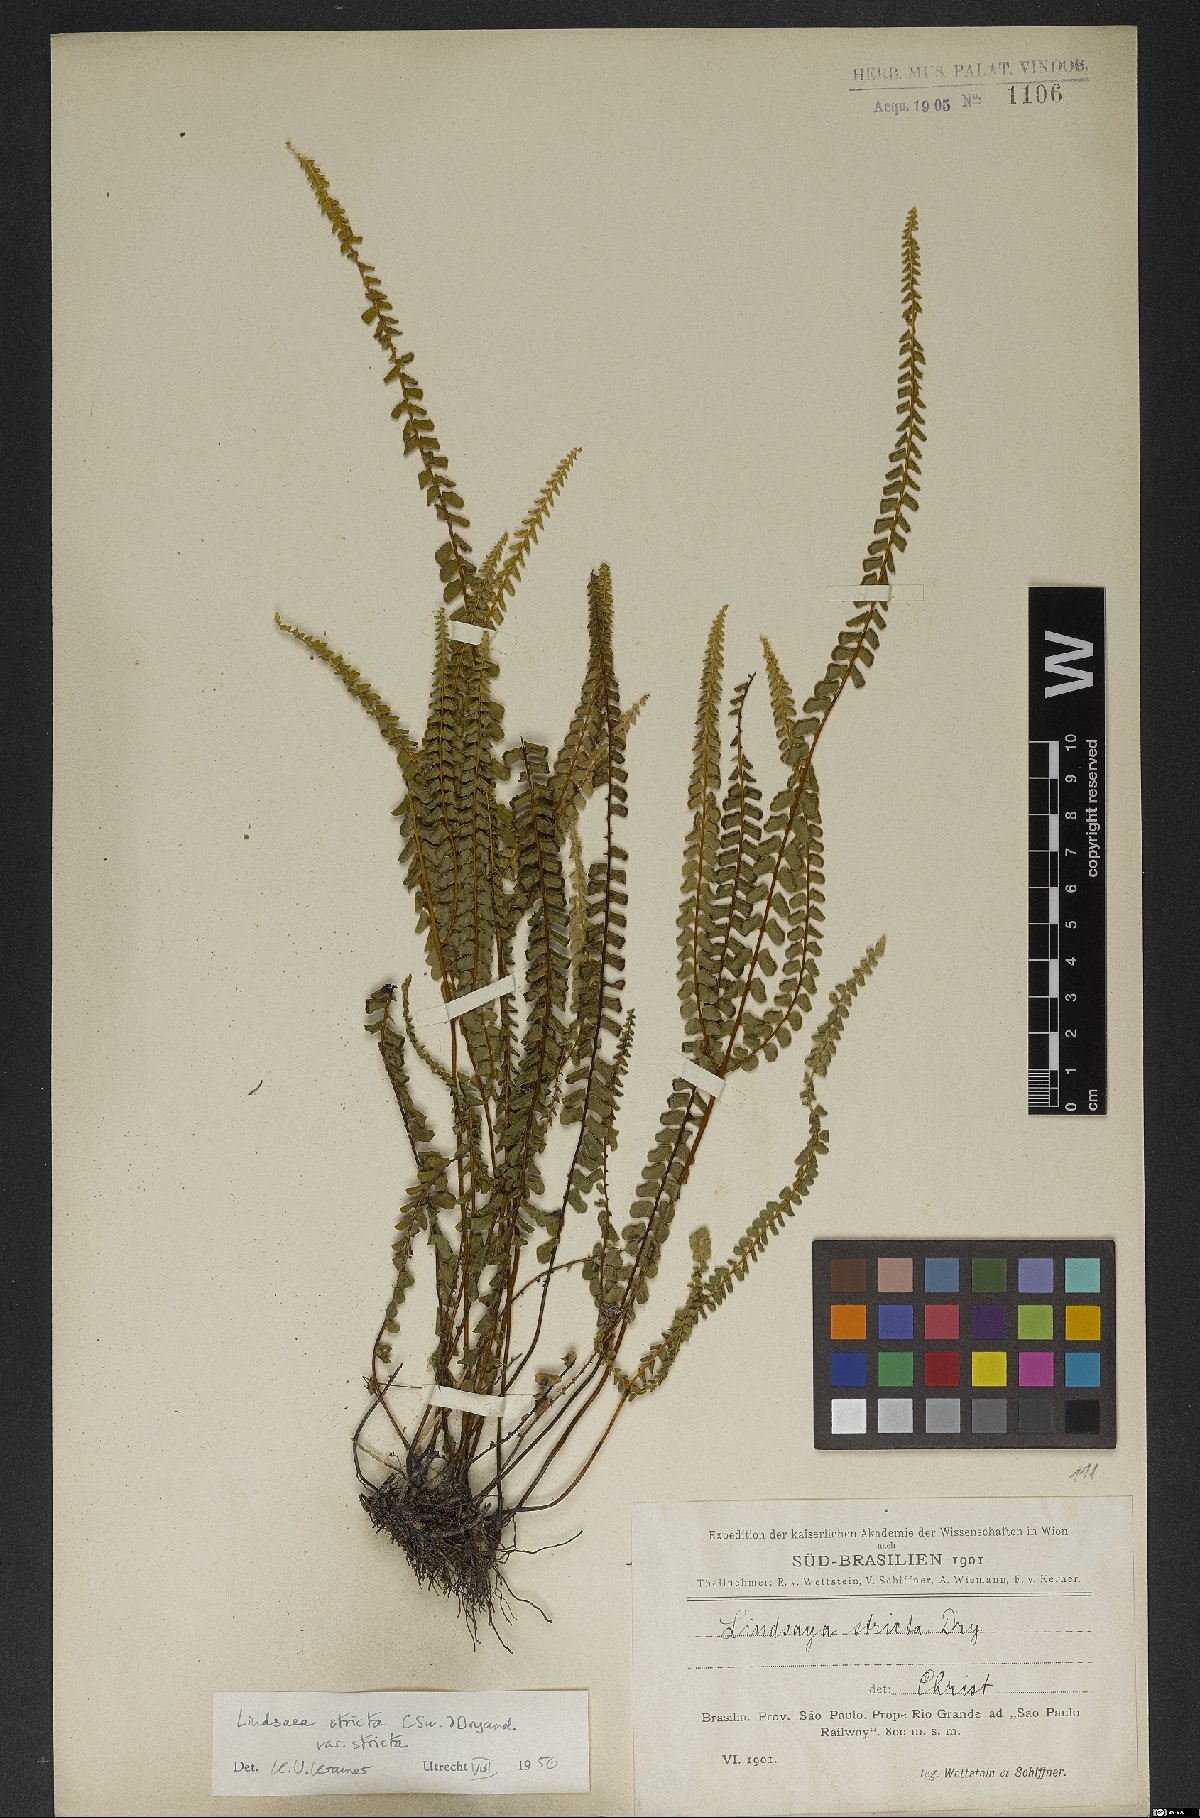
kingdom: Plantae
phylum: Tracheophyta
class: Polypodiopsida
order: Polypodiales
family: Lindsaeaceae
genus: Lindsaea
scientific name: Lindsaea stricta
